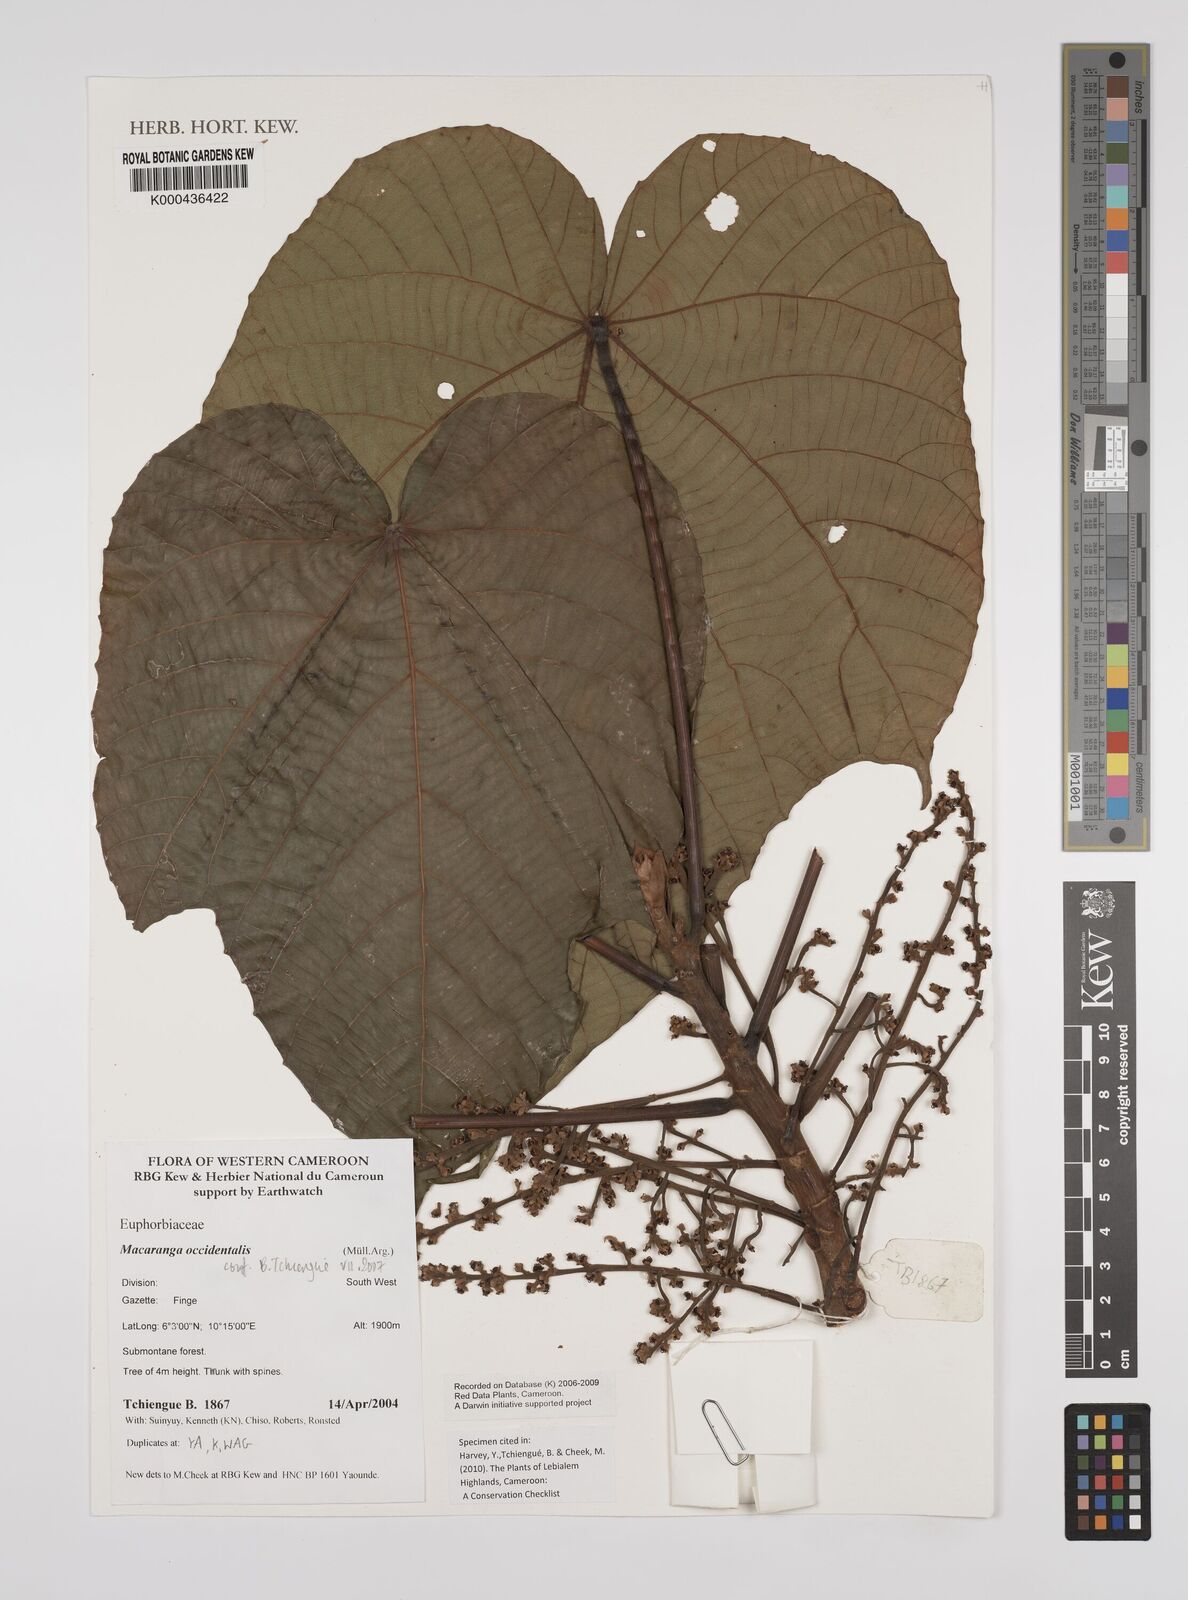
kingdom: Plantae
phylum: Tracheophyta
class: Magnoliopsida
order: Malpighiales
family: Euphorbiaceae
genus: Macaranga
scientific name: Macaranga
